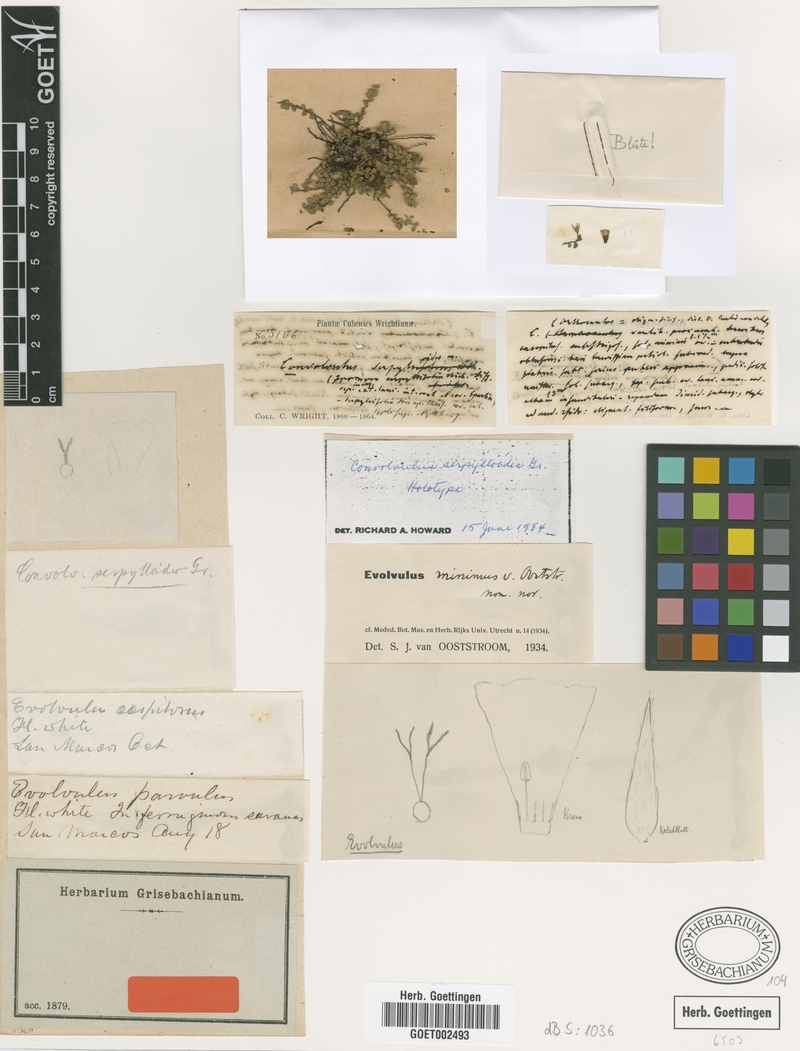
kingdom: Plantae
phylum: Tracheophyta
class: Magnoliopsida
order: Solanales
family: Convolvulaceae
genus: Evolvulus
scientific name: Evolvulus minimus
